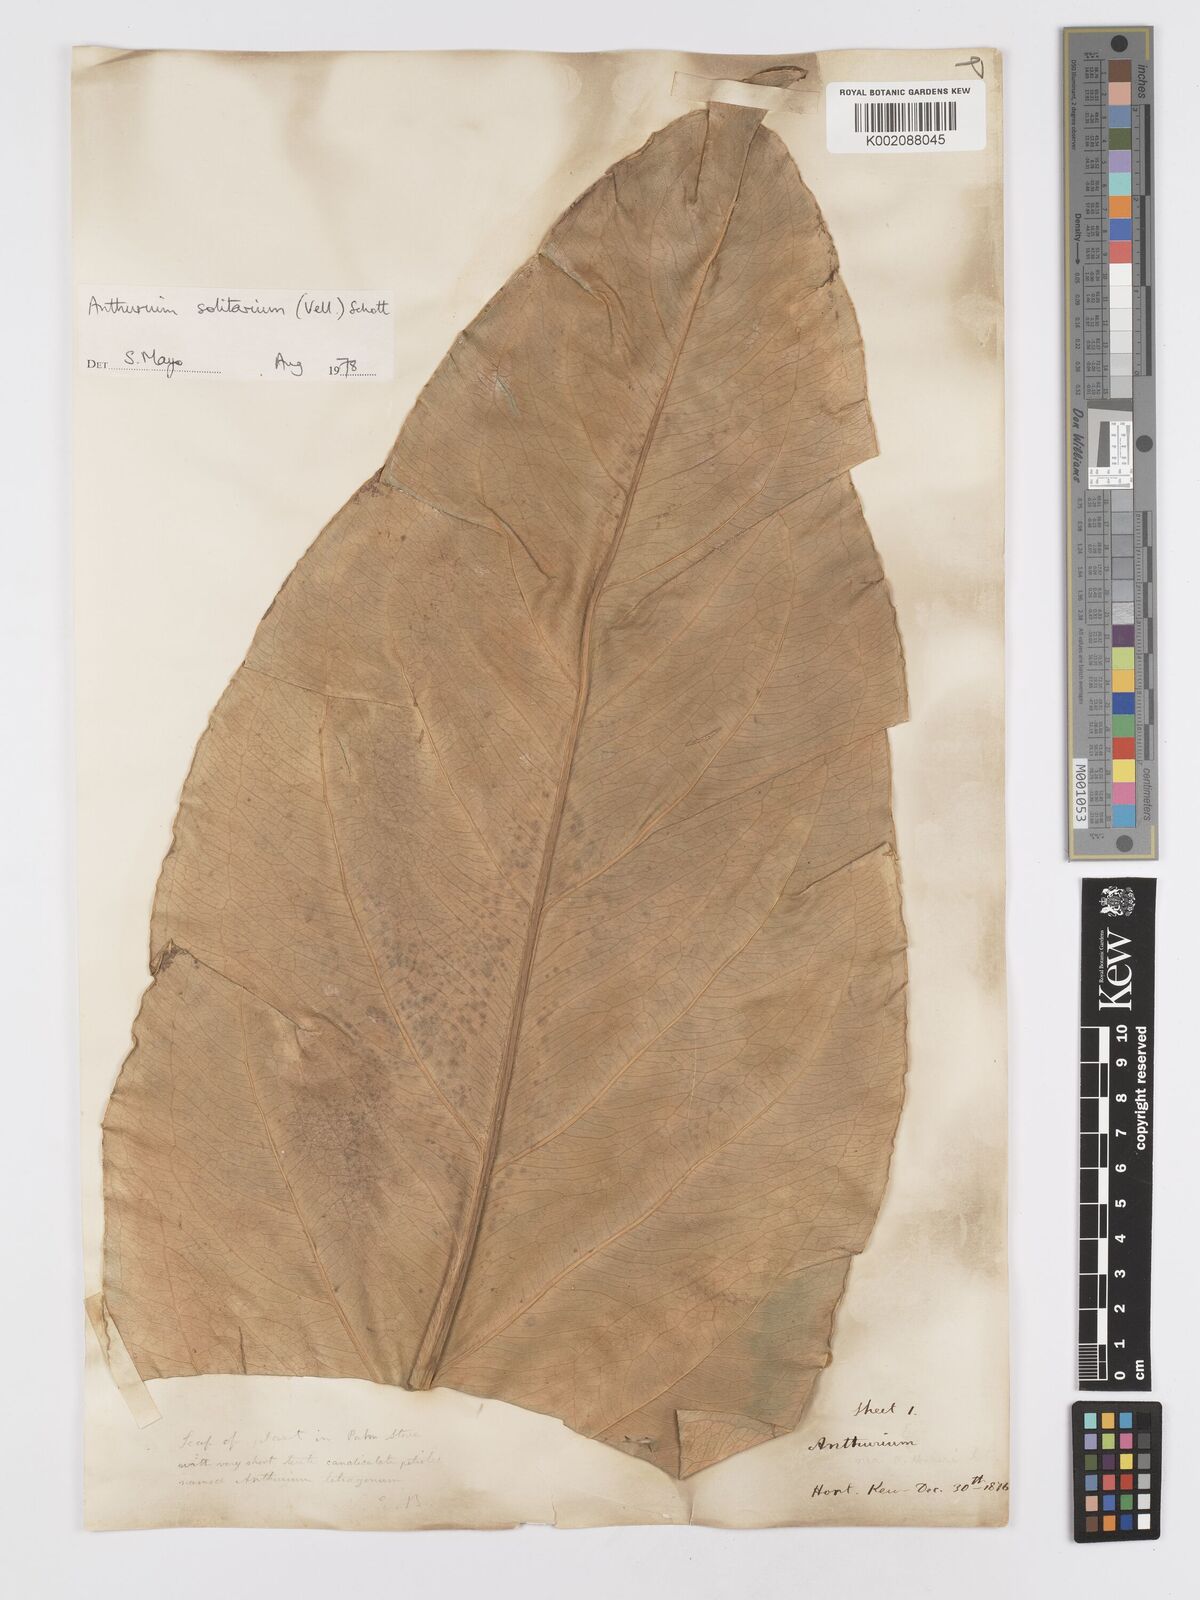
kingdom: Plantae
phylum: Tracheophyta
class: Liliopsida
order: Alismatales
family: Araceae
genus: Anthurium
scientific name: Anthurium solitarium
